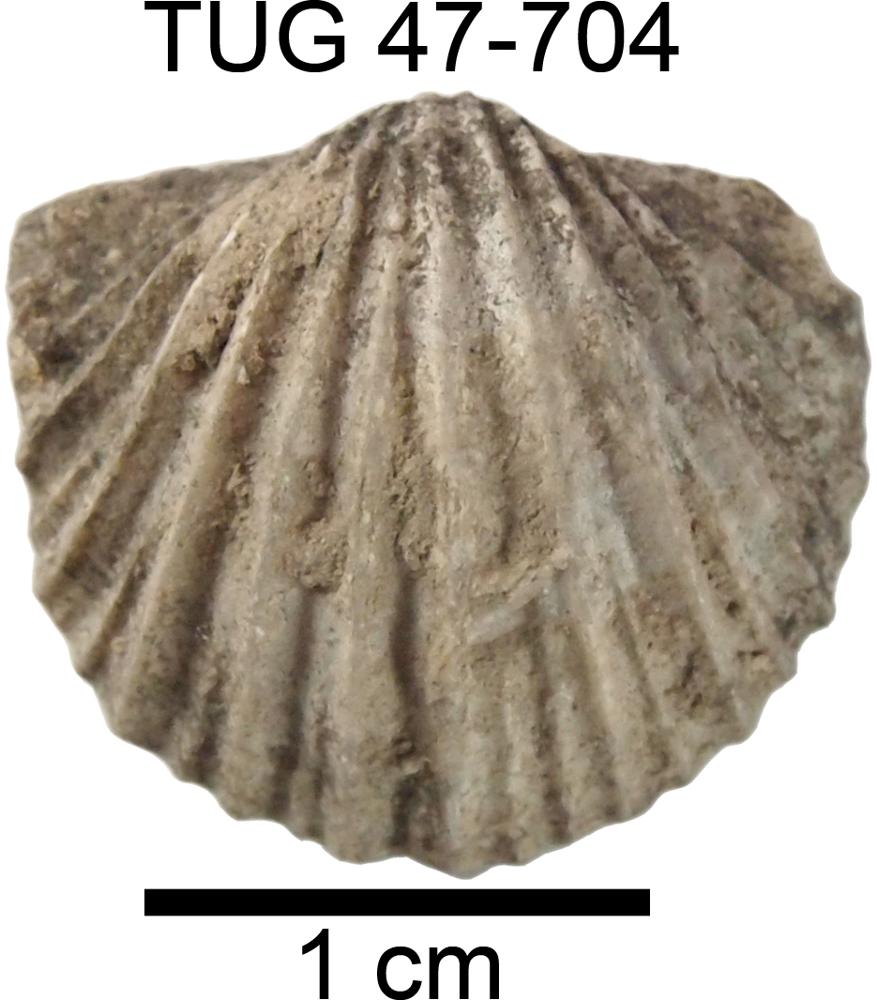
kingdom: Animalia
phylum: Brachiopoda
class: Rhynchonellata
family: Productorthidae
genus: Nicolella
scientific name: Nicolella oswaldi
